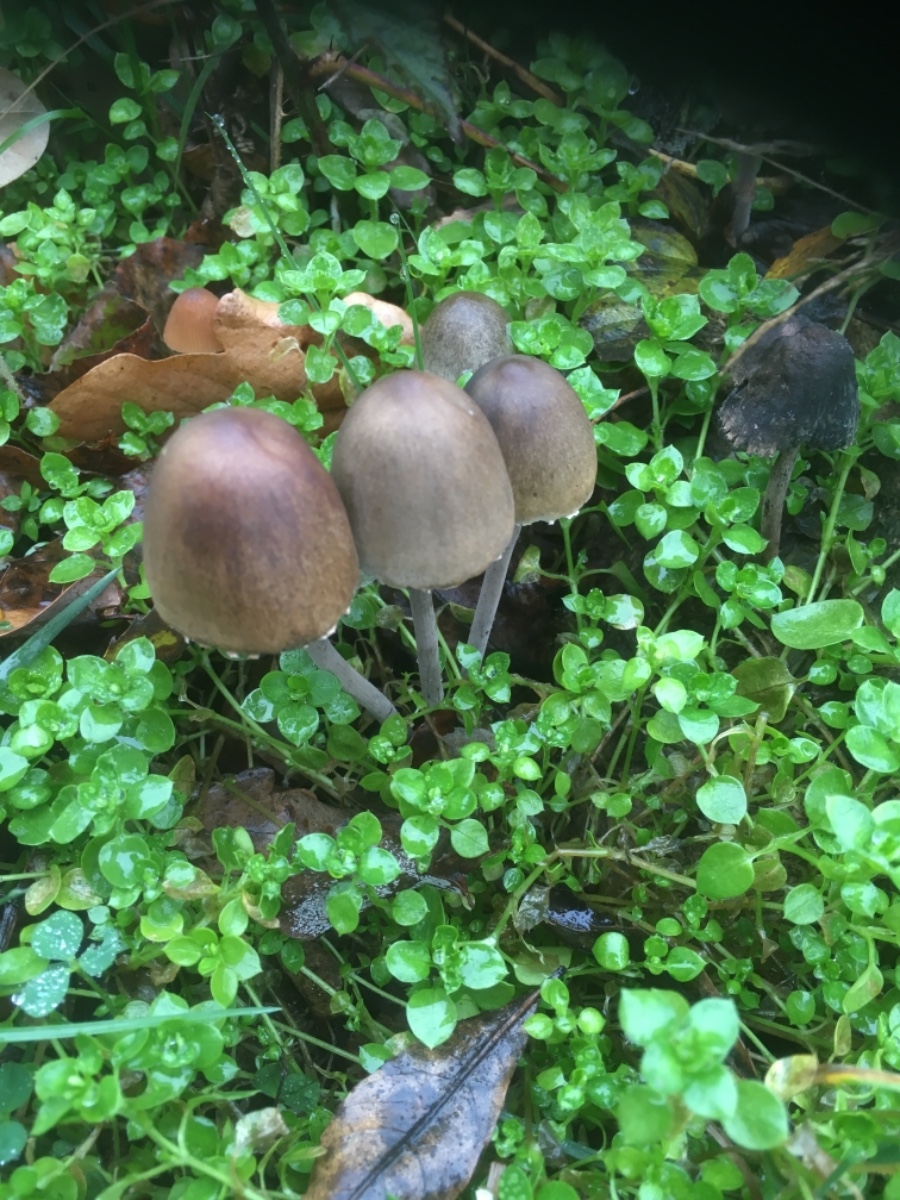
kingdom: Fungi
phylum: Basidiomycota
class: Agaricomycetes
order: Agaricales
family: Bolbitiaceae
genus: Panaeolus
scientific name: Panaeolus papilionaceus
